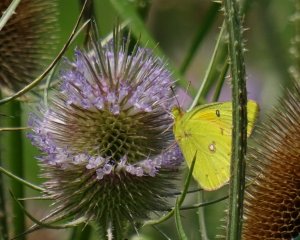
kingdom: Animalia
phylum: Arthropoda
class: Insecta
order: Lepidoptera
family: Pieridae
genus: Colias
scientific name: Colias eurytheme
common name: Orange Sulphur
